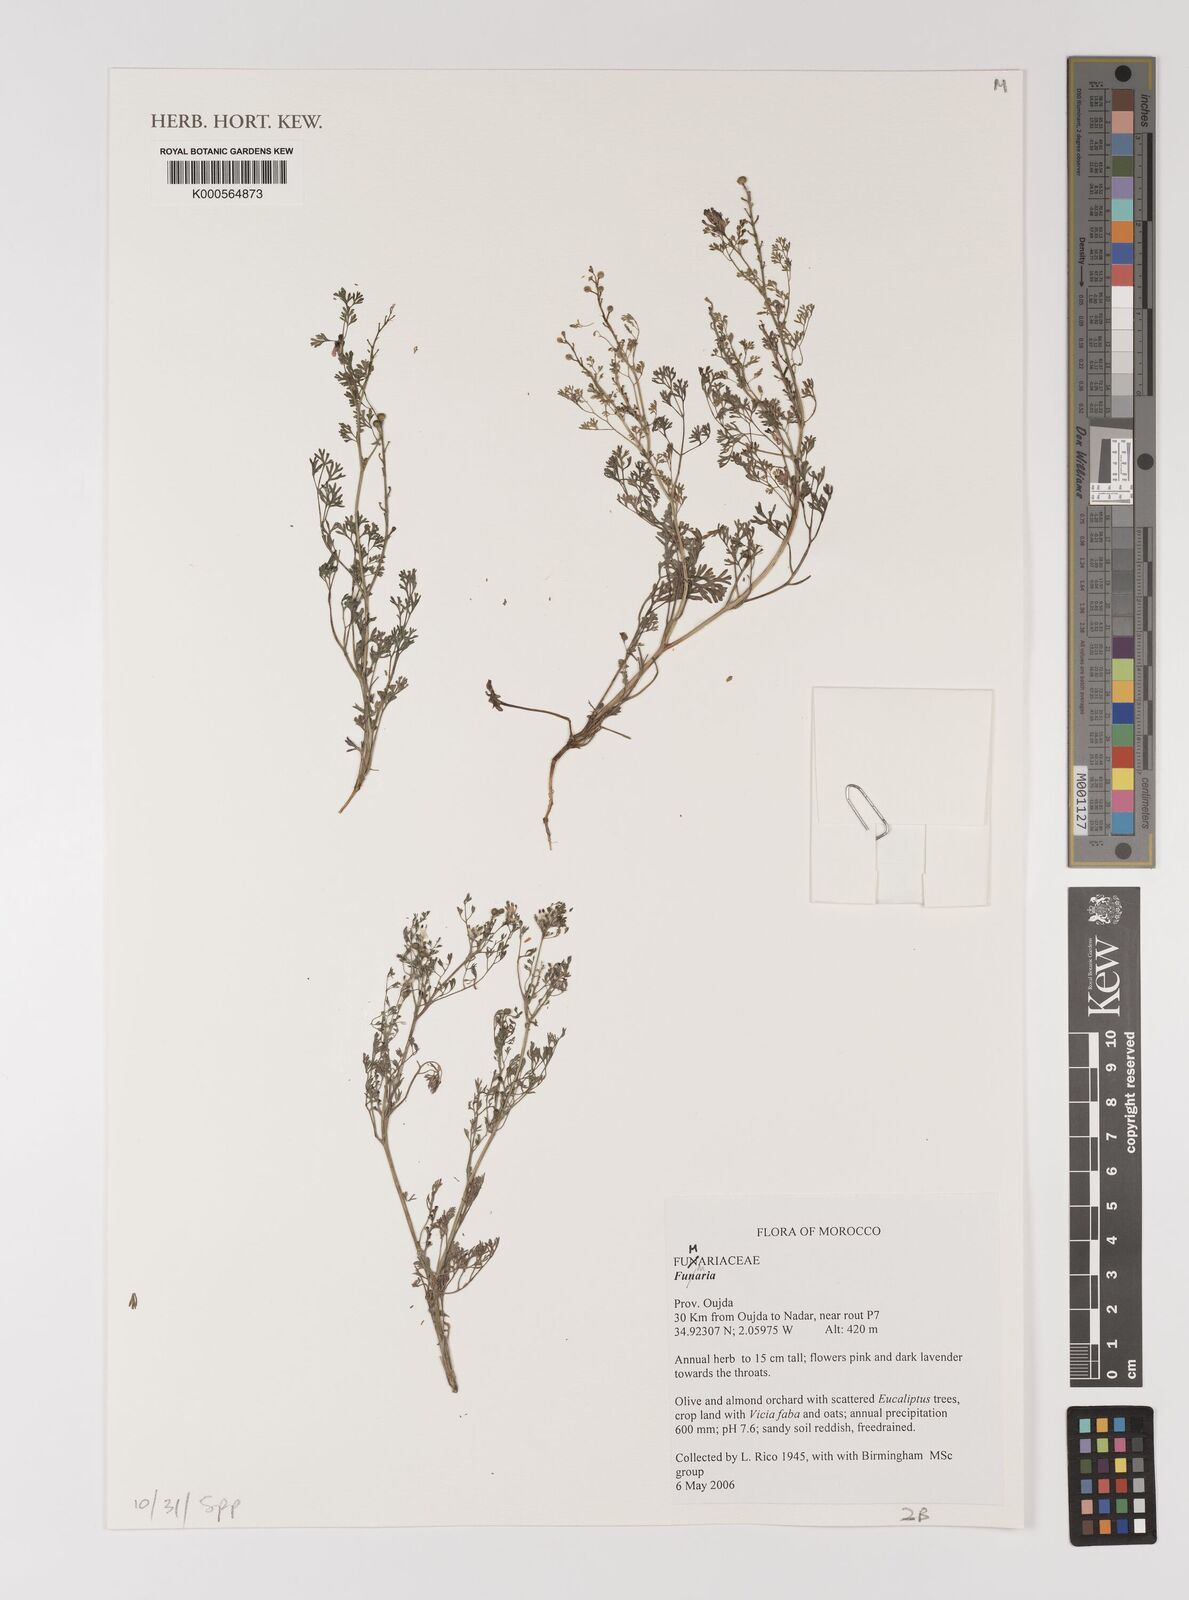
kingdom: Plantae
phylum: Tracheophyta
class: Magnoliopsida
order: Ranunculales
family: Papaveraceae
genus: Fumaria
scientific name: Fumaria
